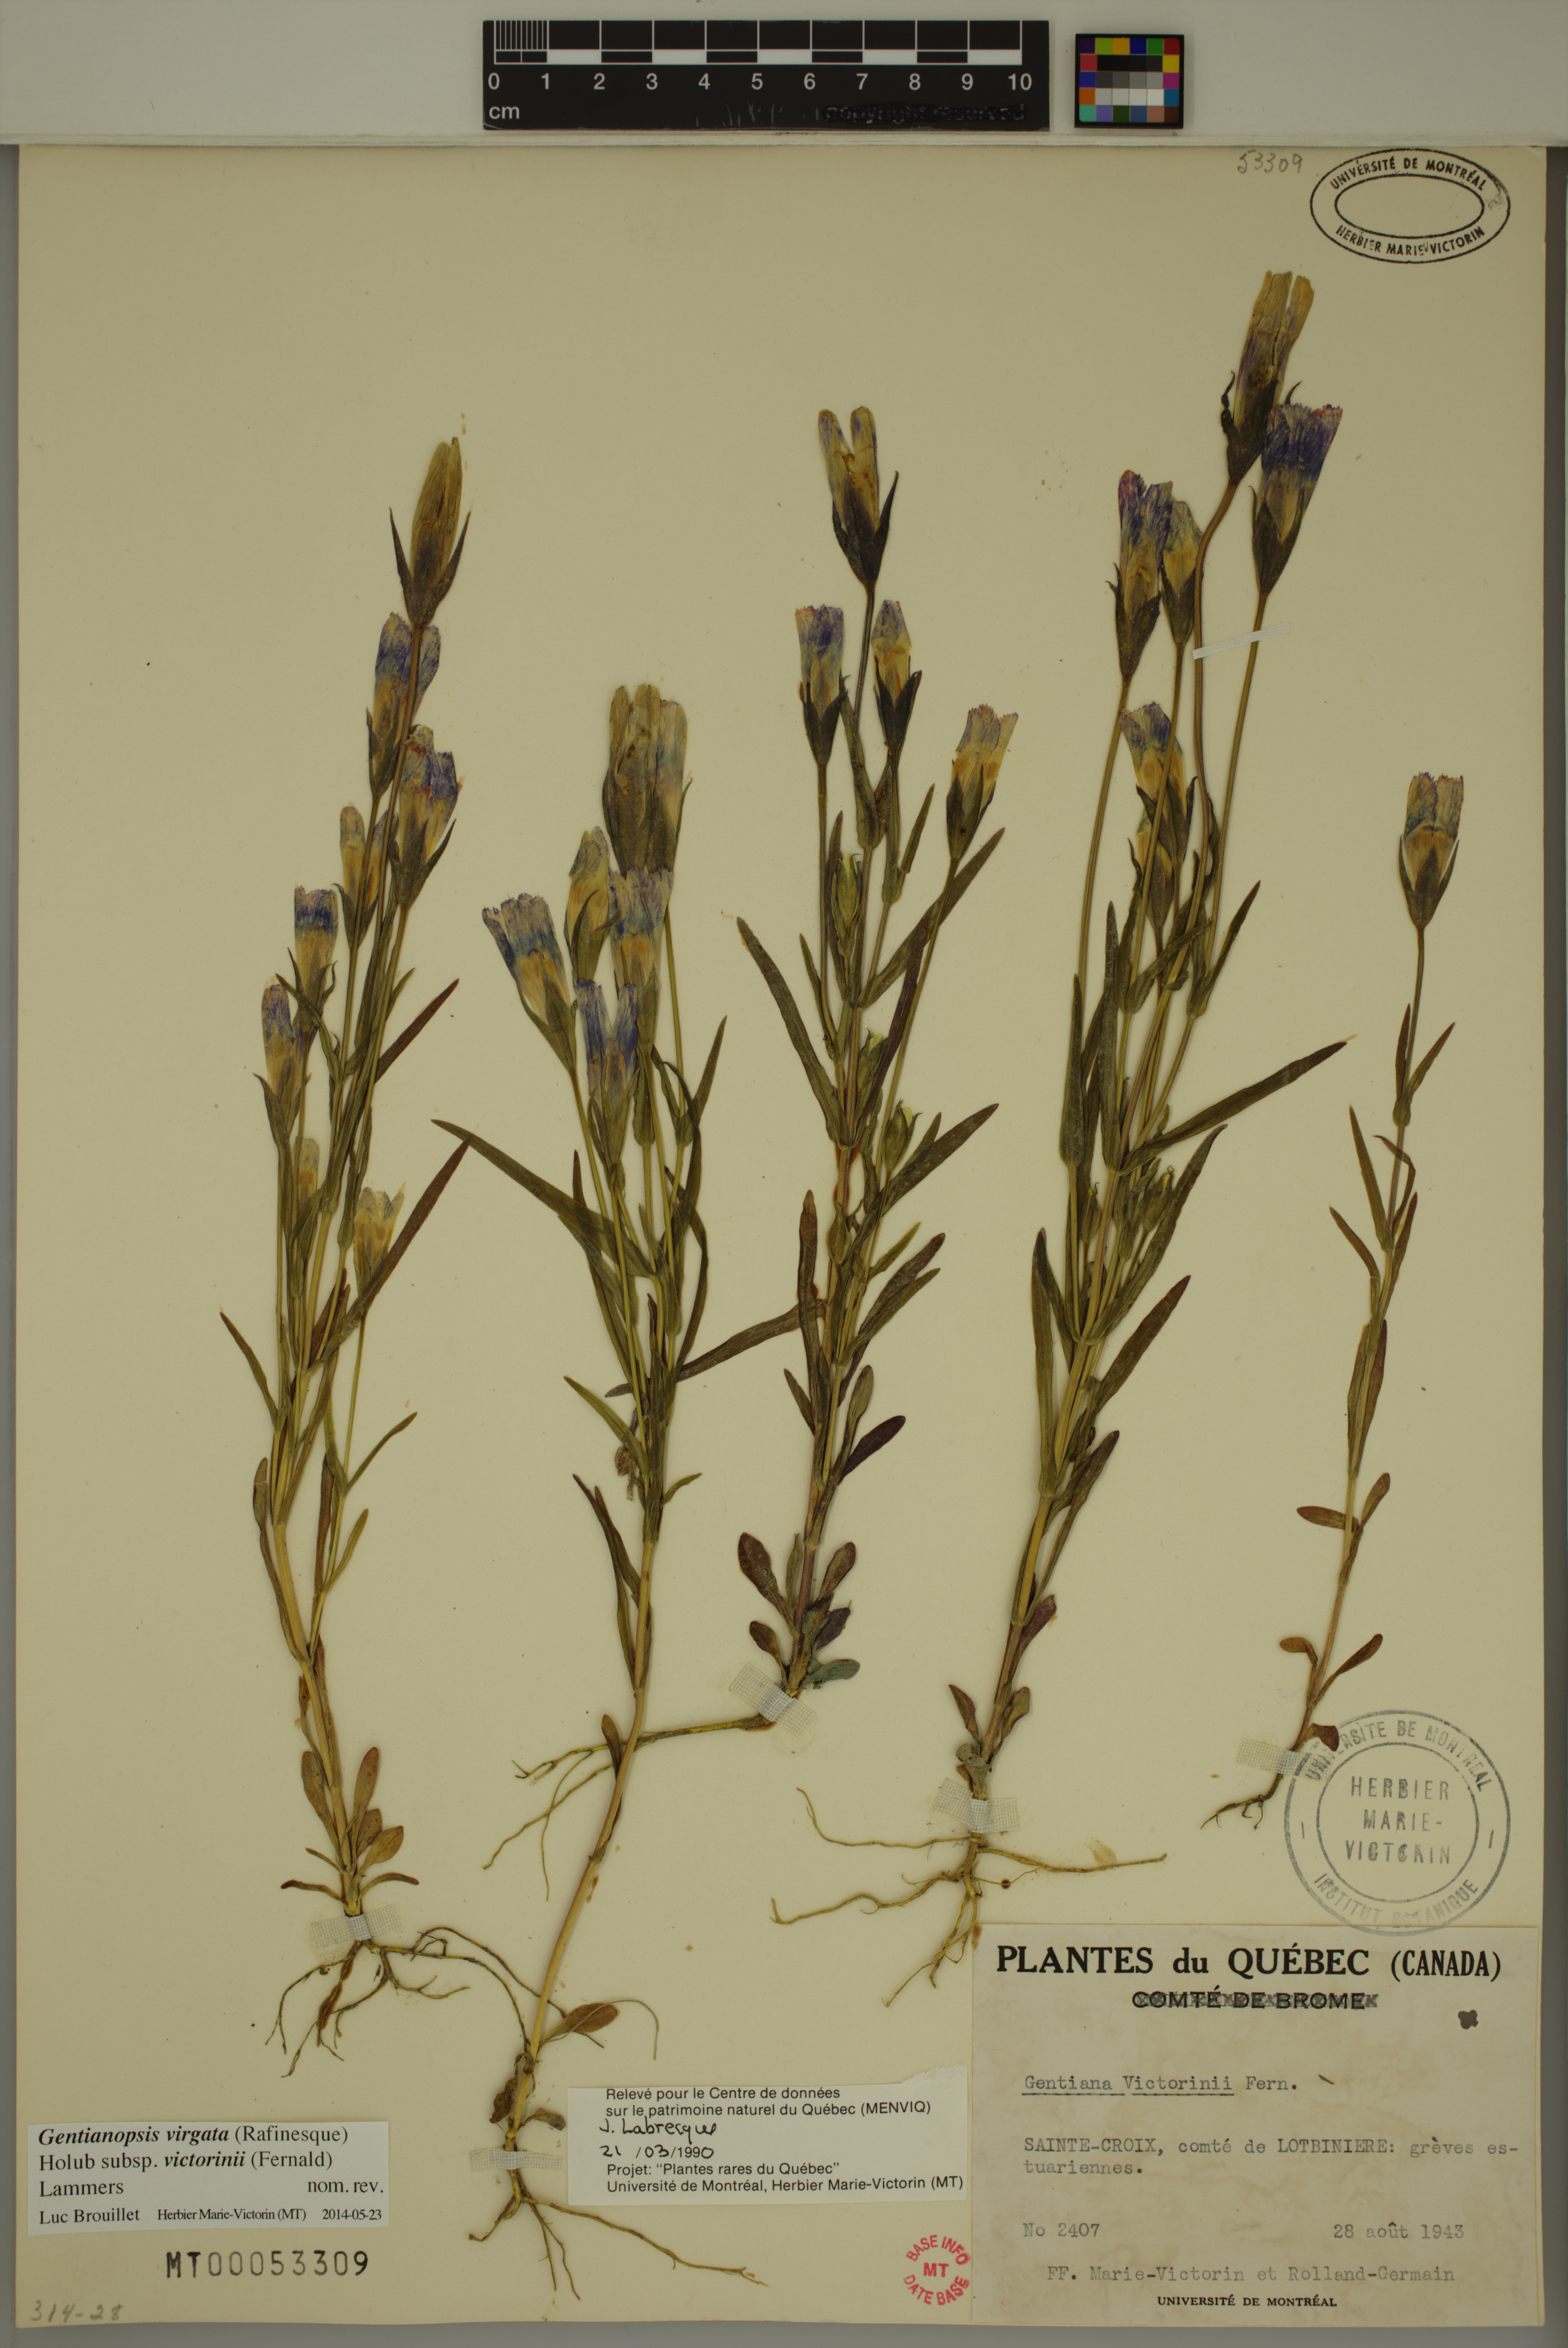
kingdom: Plantae
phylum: Tracheophyta
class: Magnoliopsida
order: Gentianales
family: Gentianaceae
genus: Gentianopsis
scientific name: Gentianopsis victorinii
